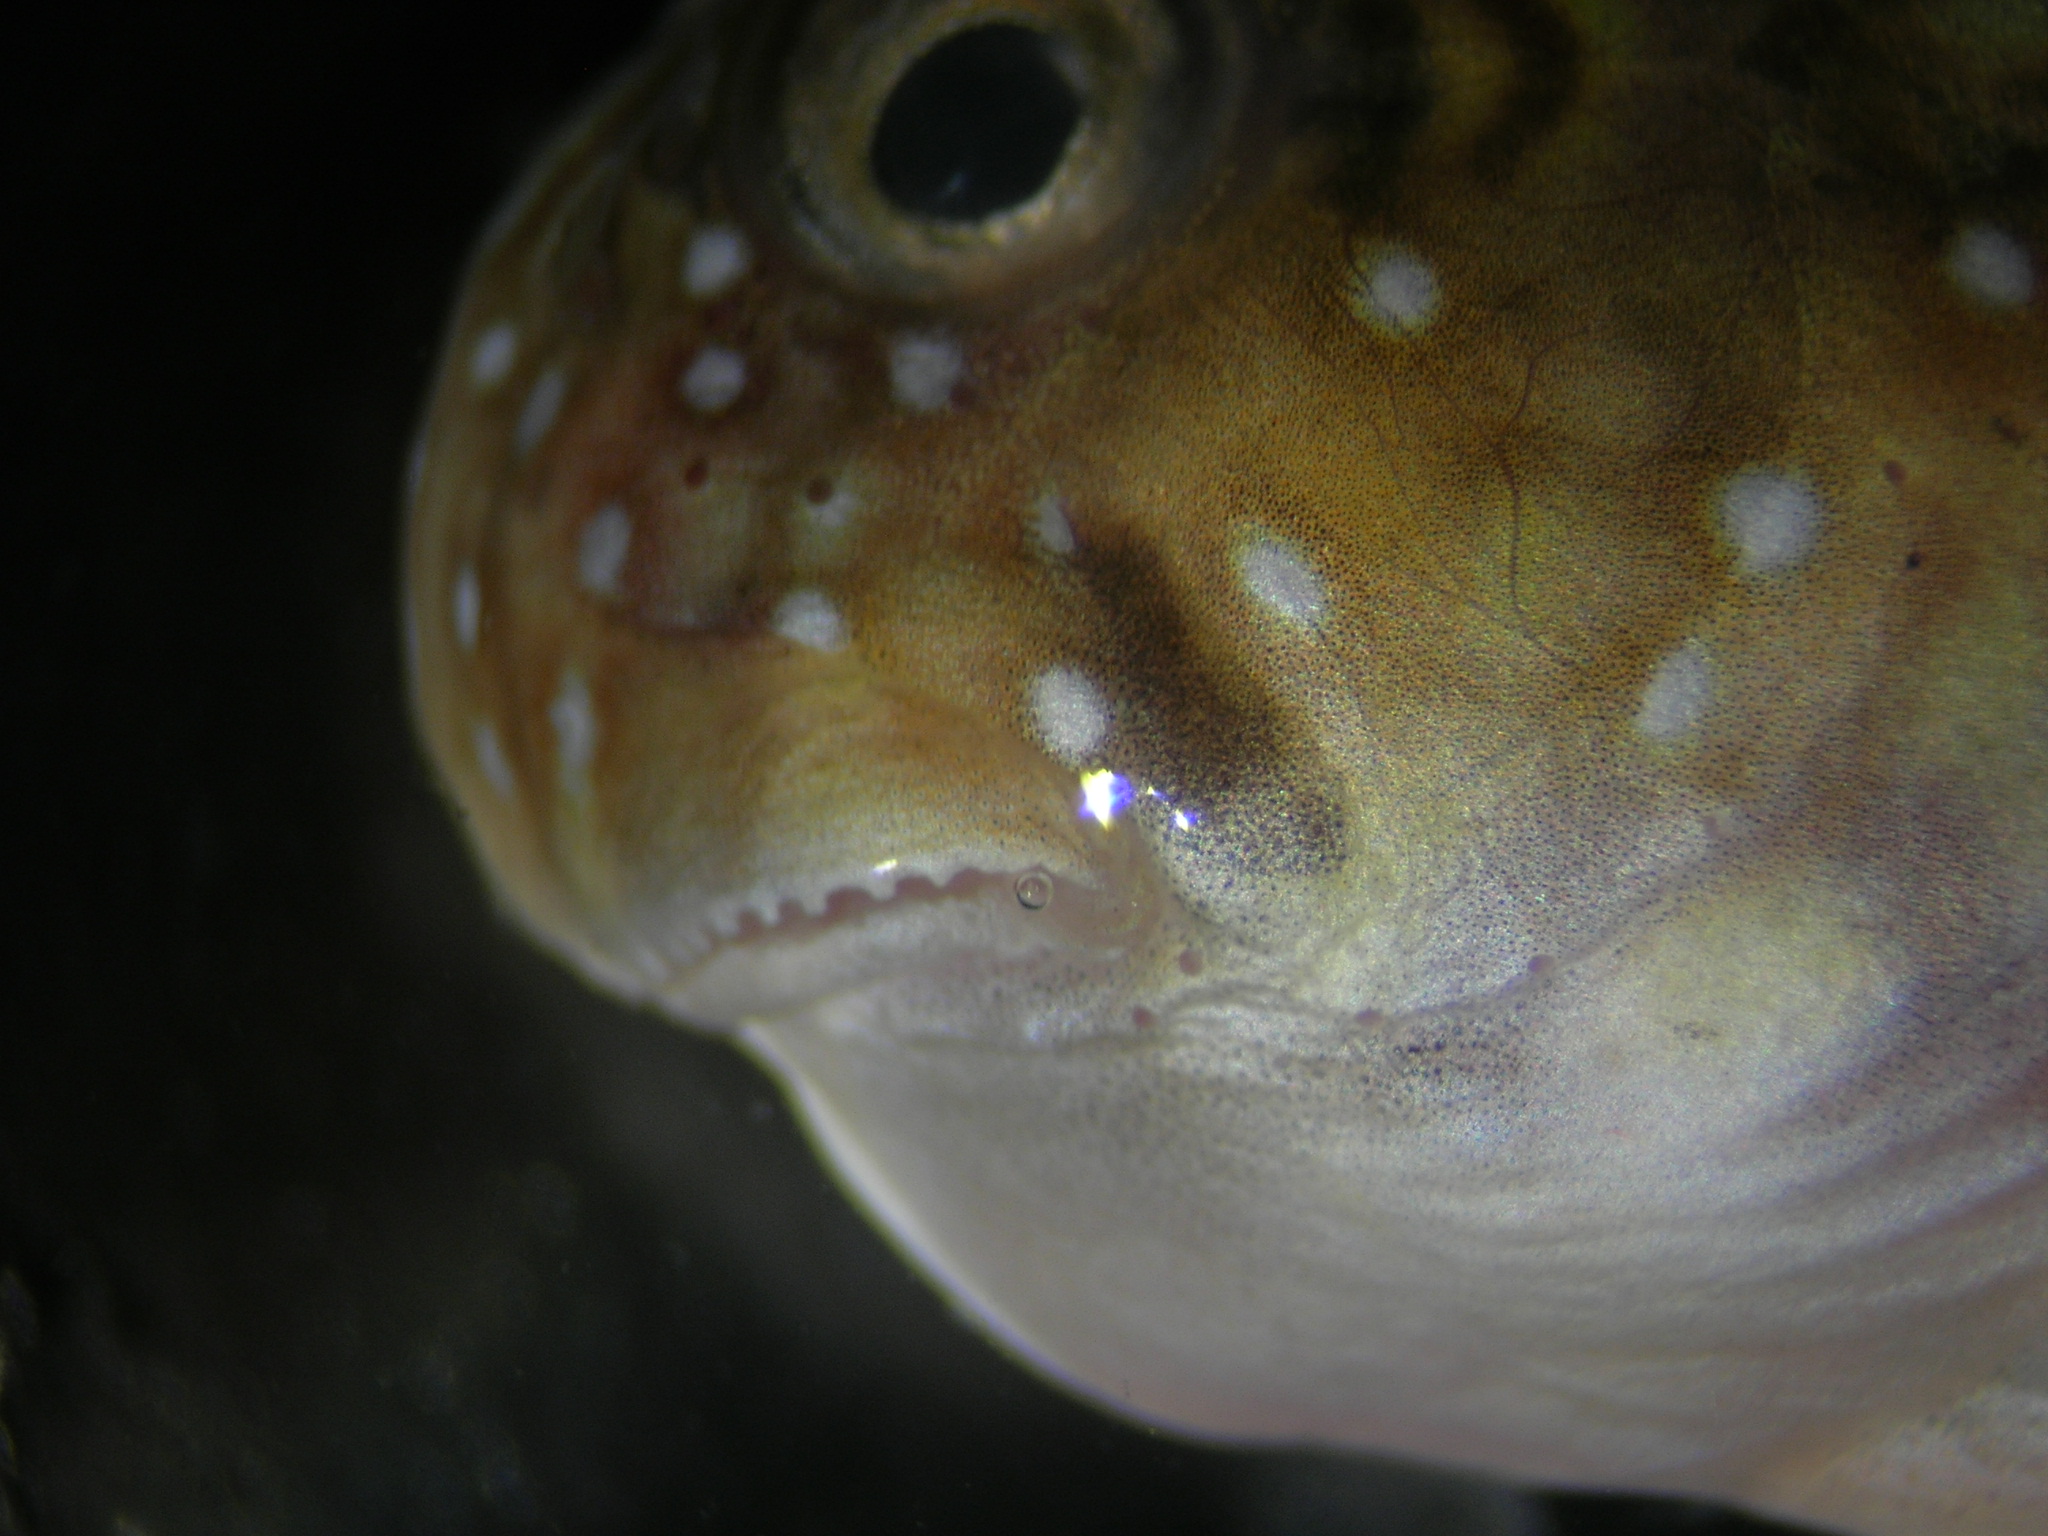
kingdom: Animalia
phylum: Chordata
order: Perciformes
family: Blenniidae
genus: Istiblennius
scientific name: Istiblennius spilotus
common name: Spotted rockskipper
